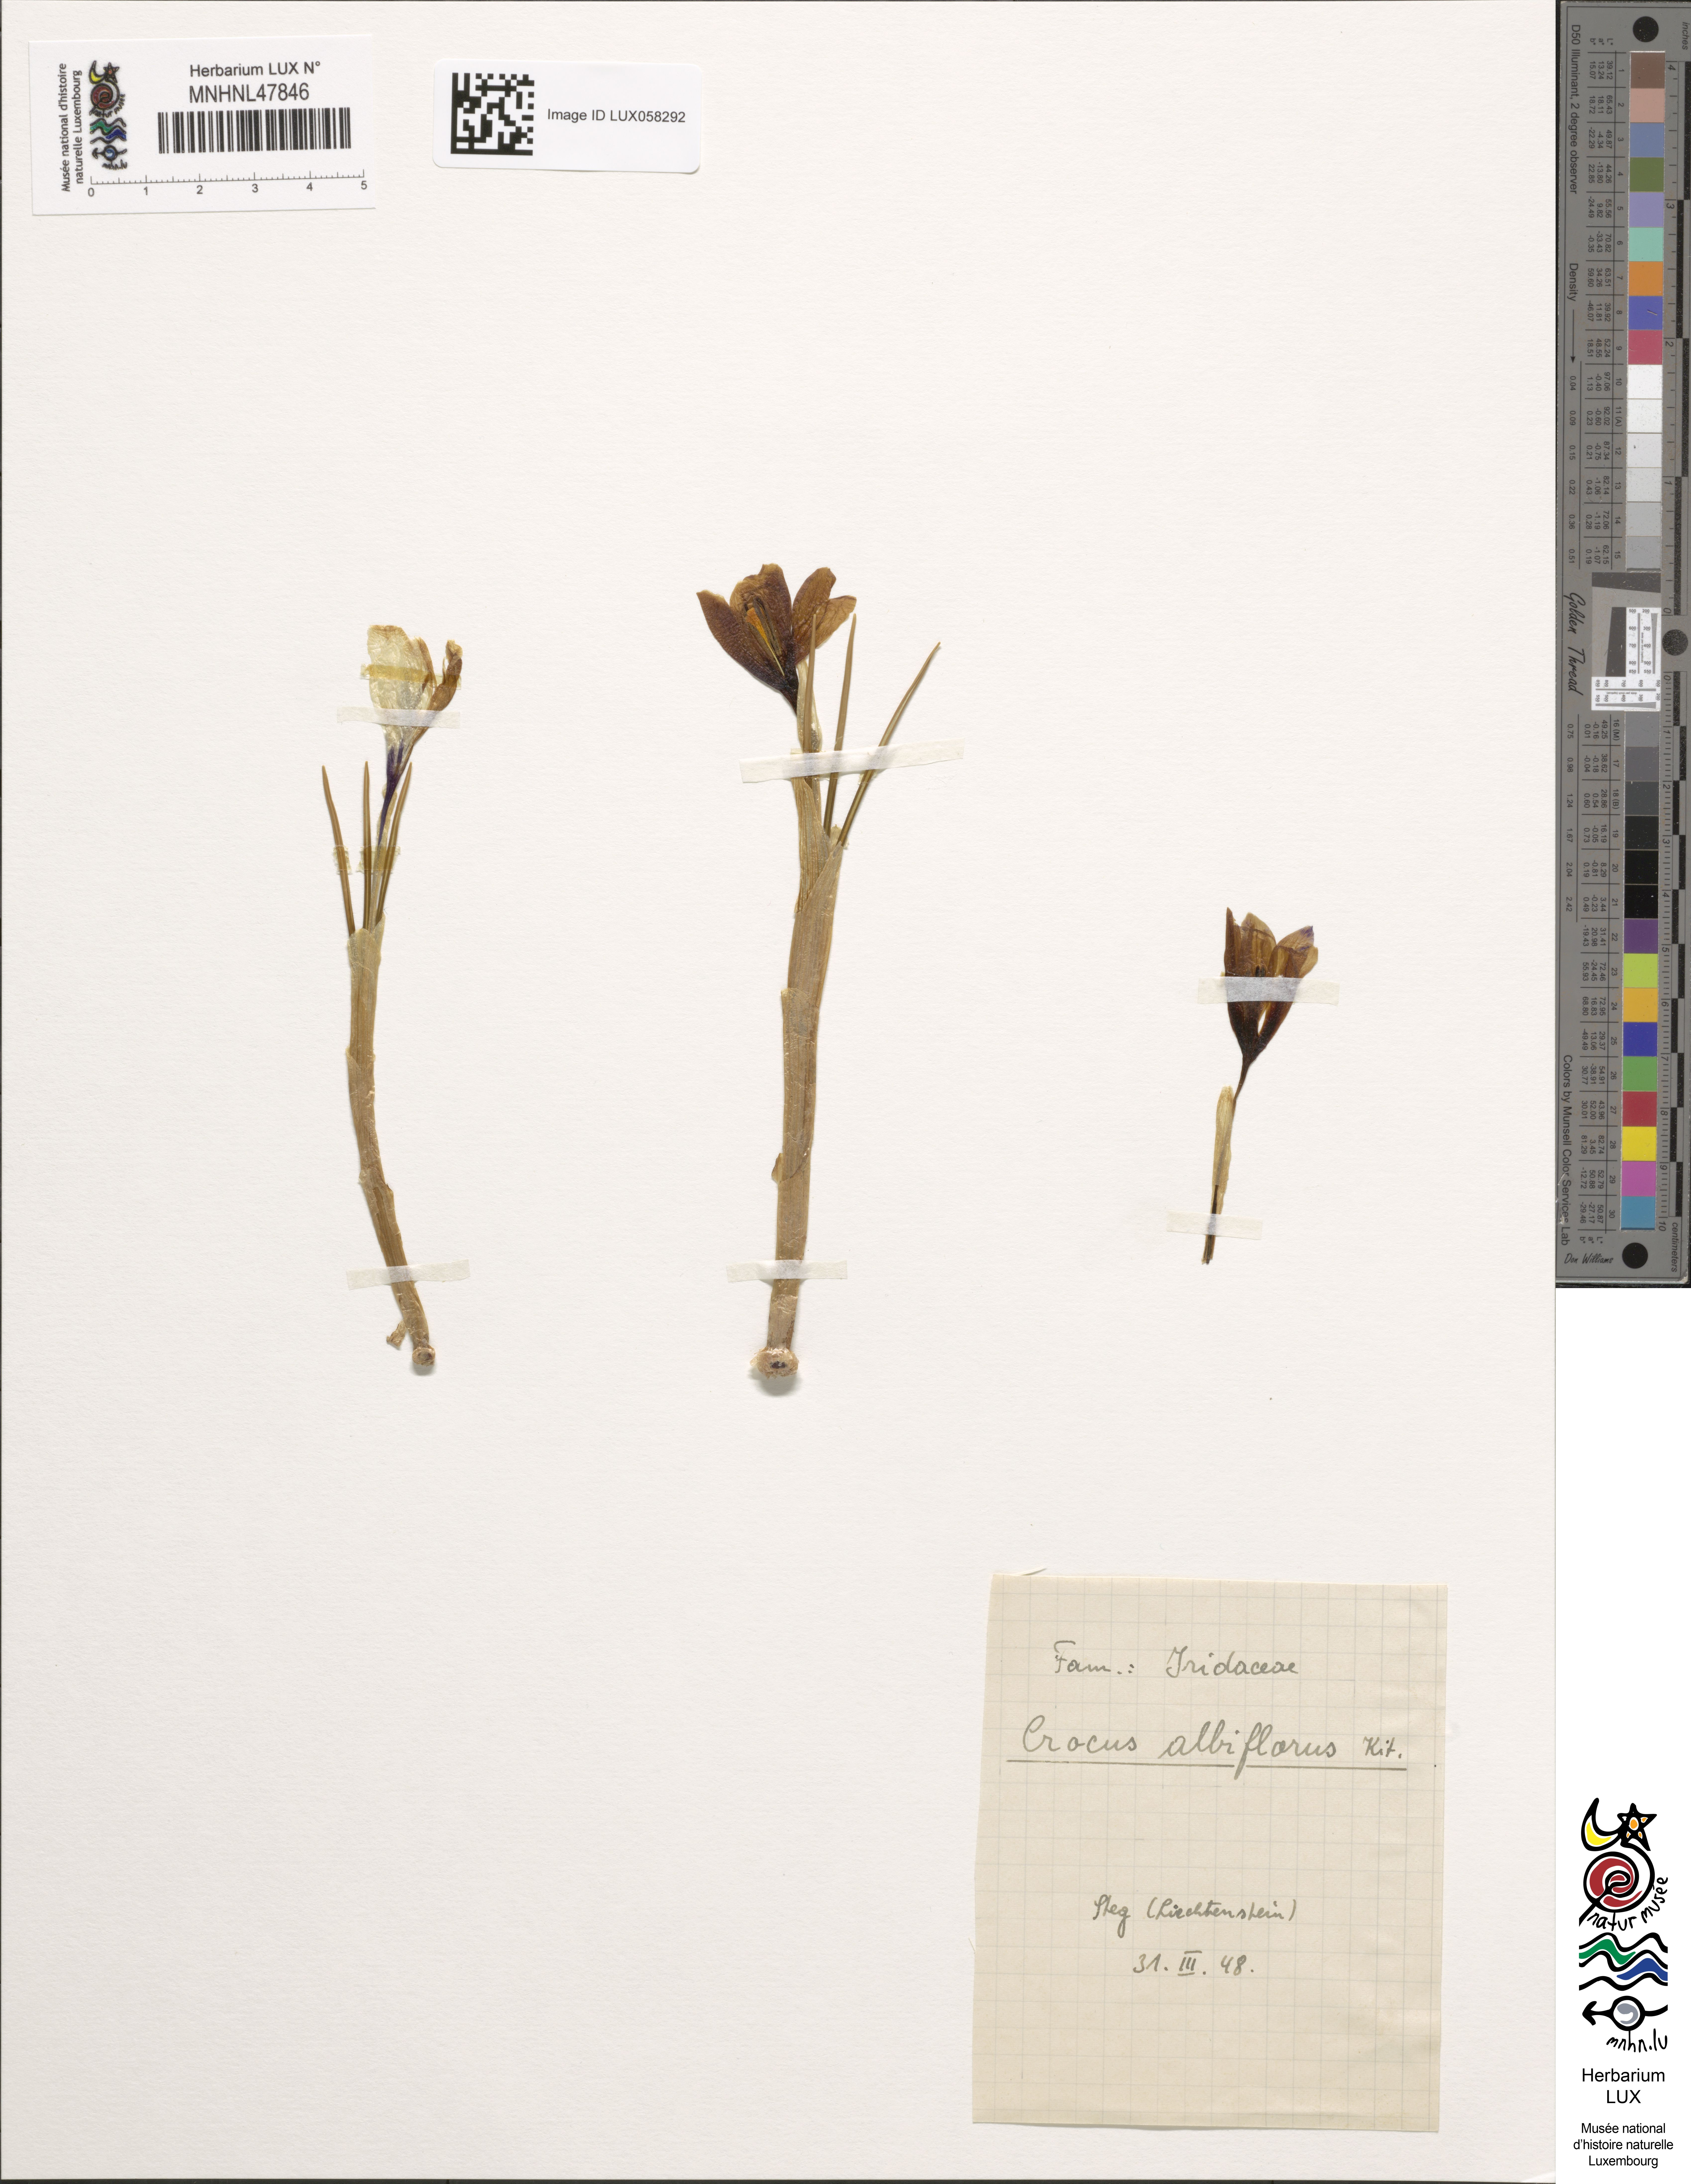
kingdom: Plantae
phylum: Tracheophyta
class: Liliopsida
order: Asparagales
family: Iridaceae
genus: Crocus
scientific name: Crocus vernus
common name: Spring crocus
